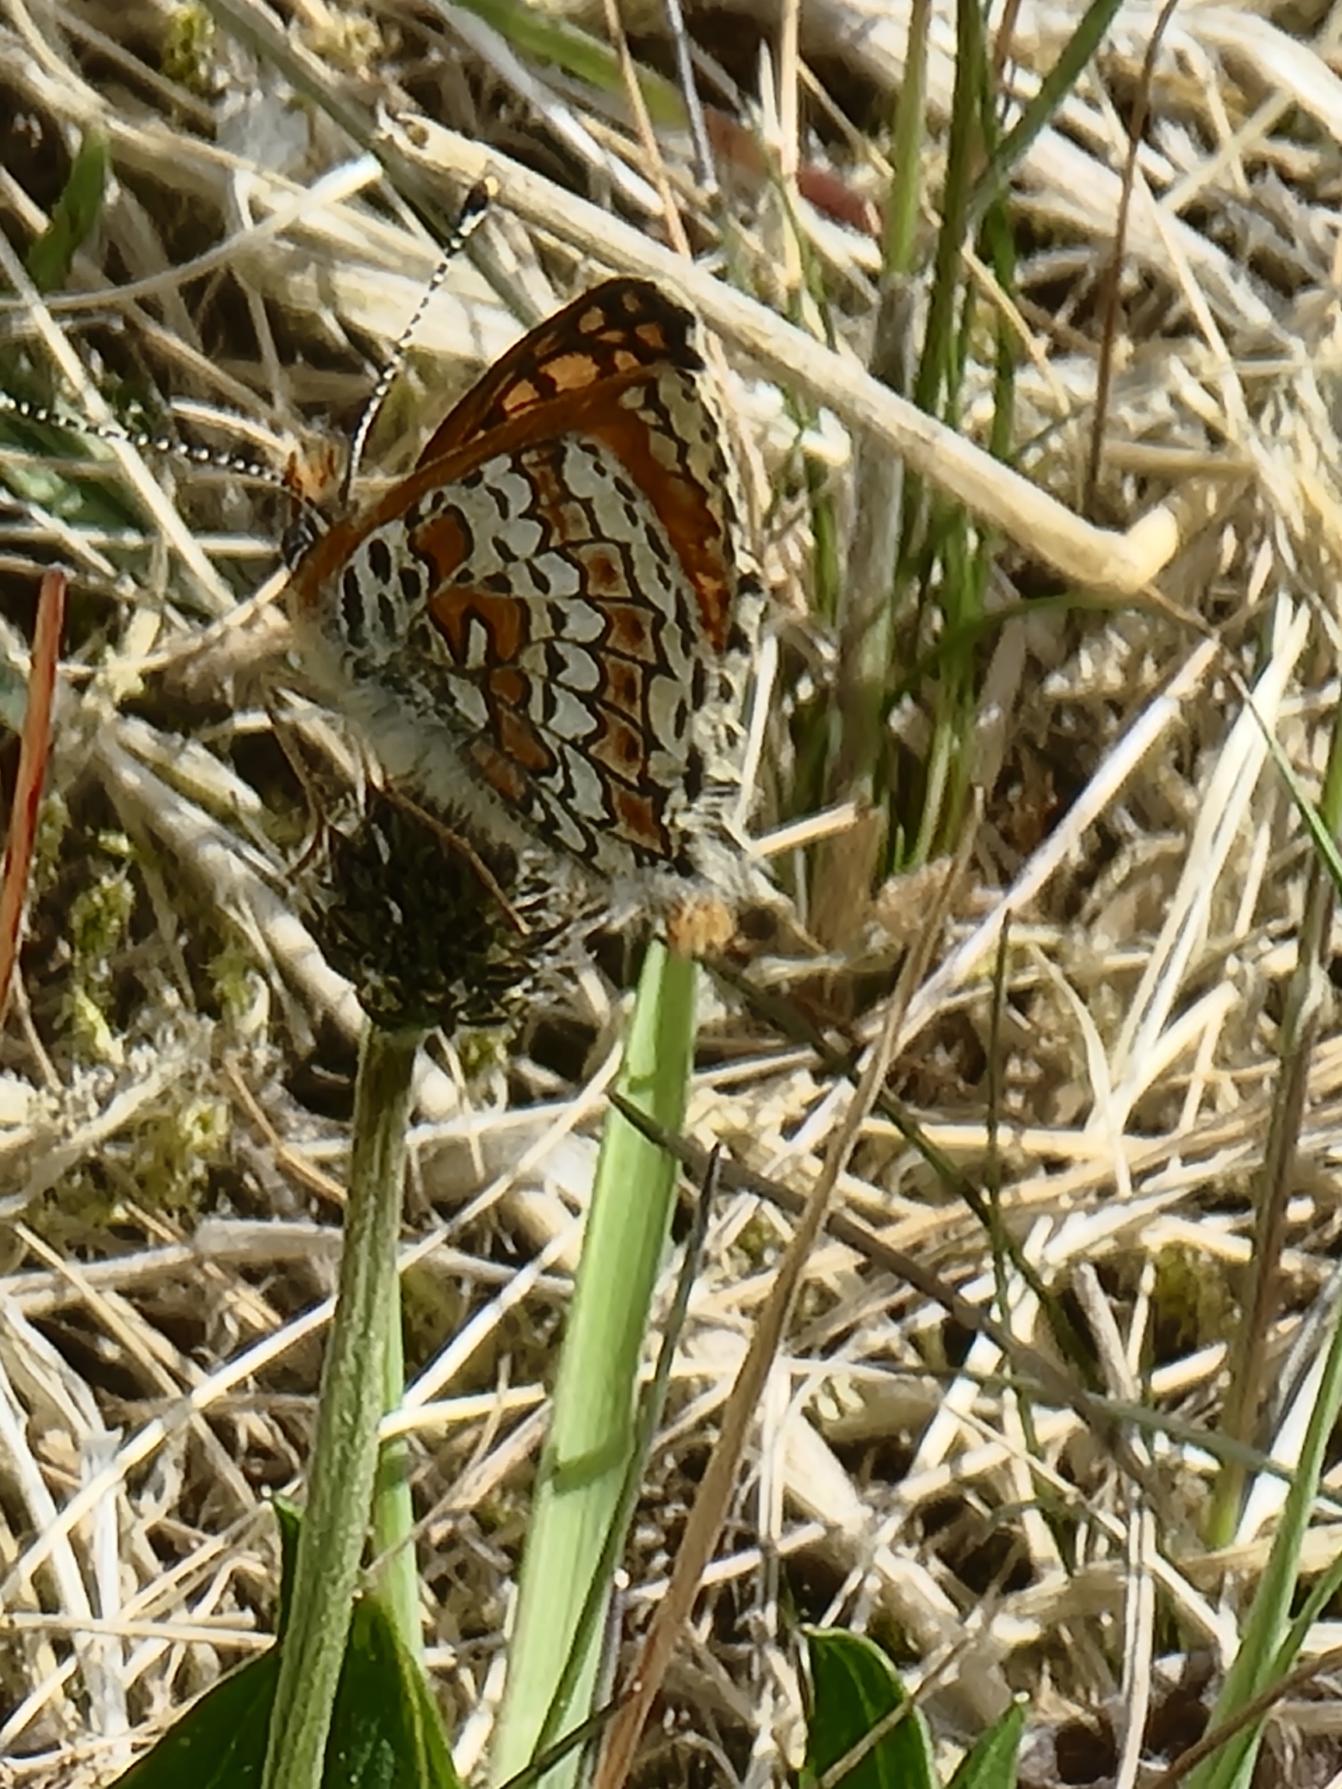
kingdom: Animalia
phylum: Arthropoda
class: Insecta
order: Lepidoptera
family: Nymphalidae
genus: Melitaea
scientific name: Melitaea cinxia
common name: Okkergul pletvinge
